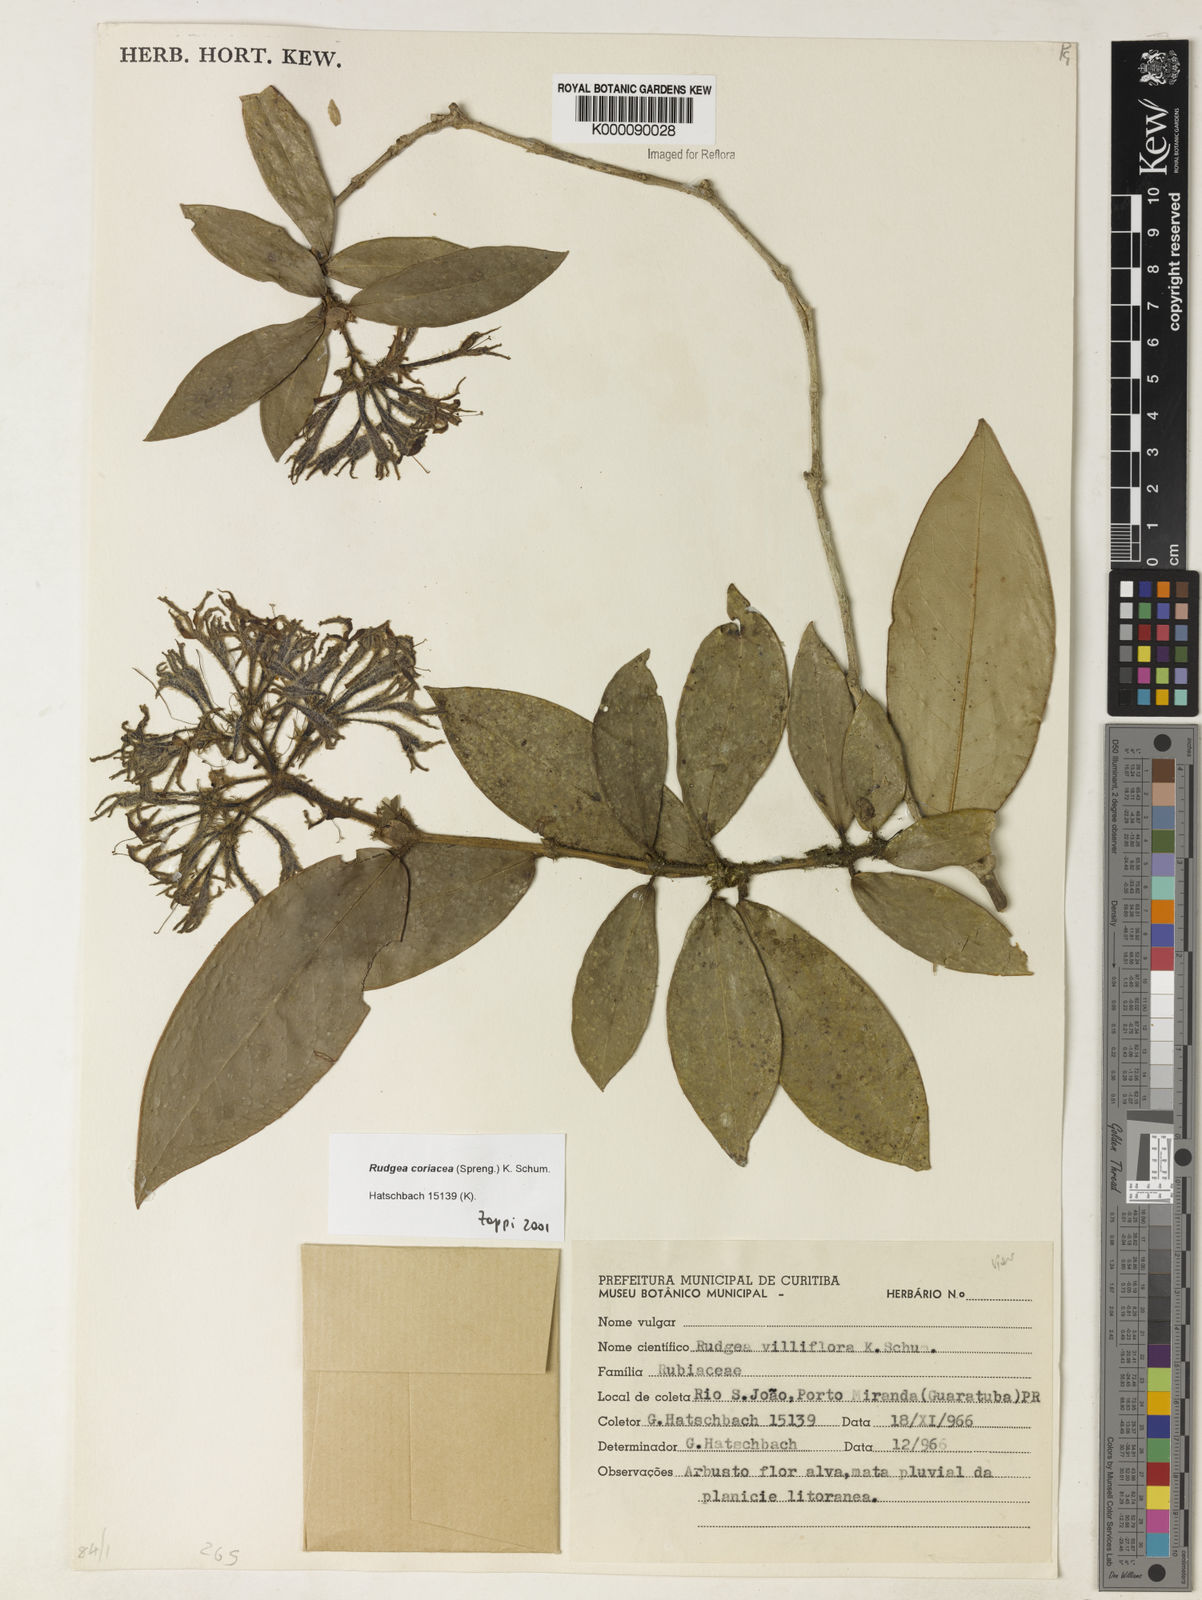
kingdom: Plantae
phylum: Tracheophyta
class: Magnoliopsida
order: Gentianales
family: Rubiaceae
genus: Rudgea
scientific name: Rudgea coriacea
